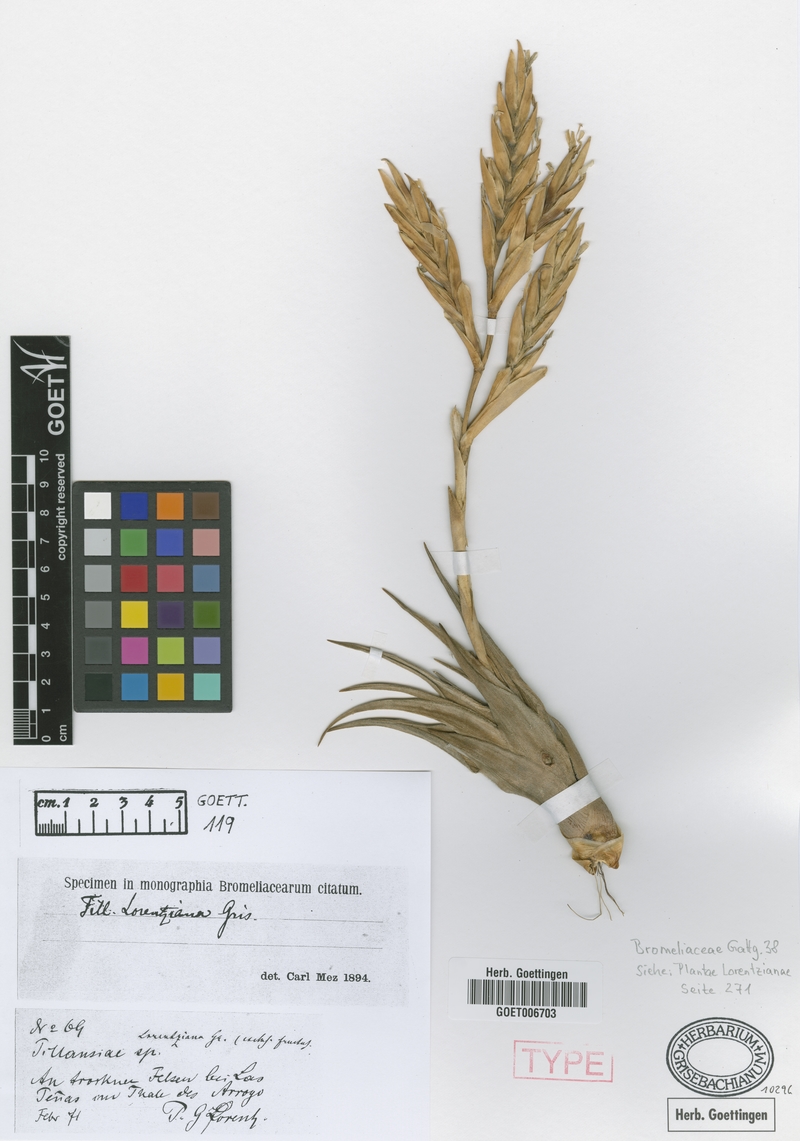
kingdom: Plantae
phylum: Tracheophyta
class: Liliopsida
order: Poales
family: Bromeliaceae
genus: Tillandsia
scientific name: Tillandsia lorentziana
